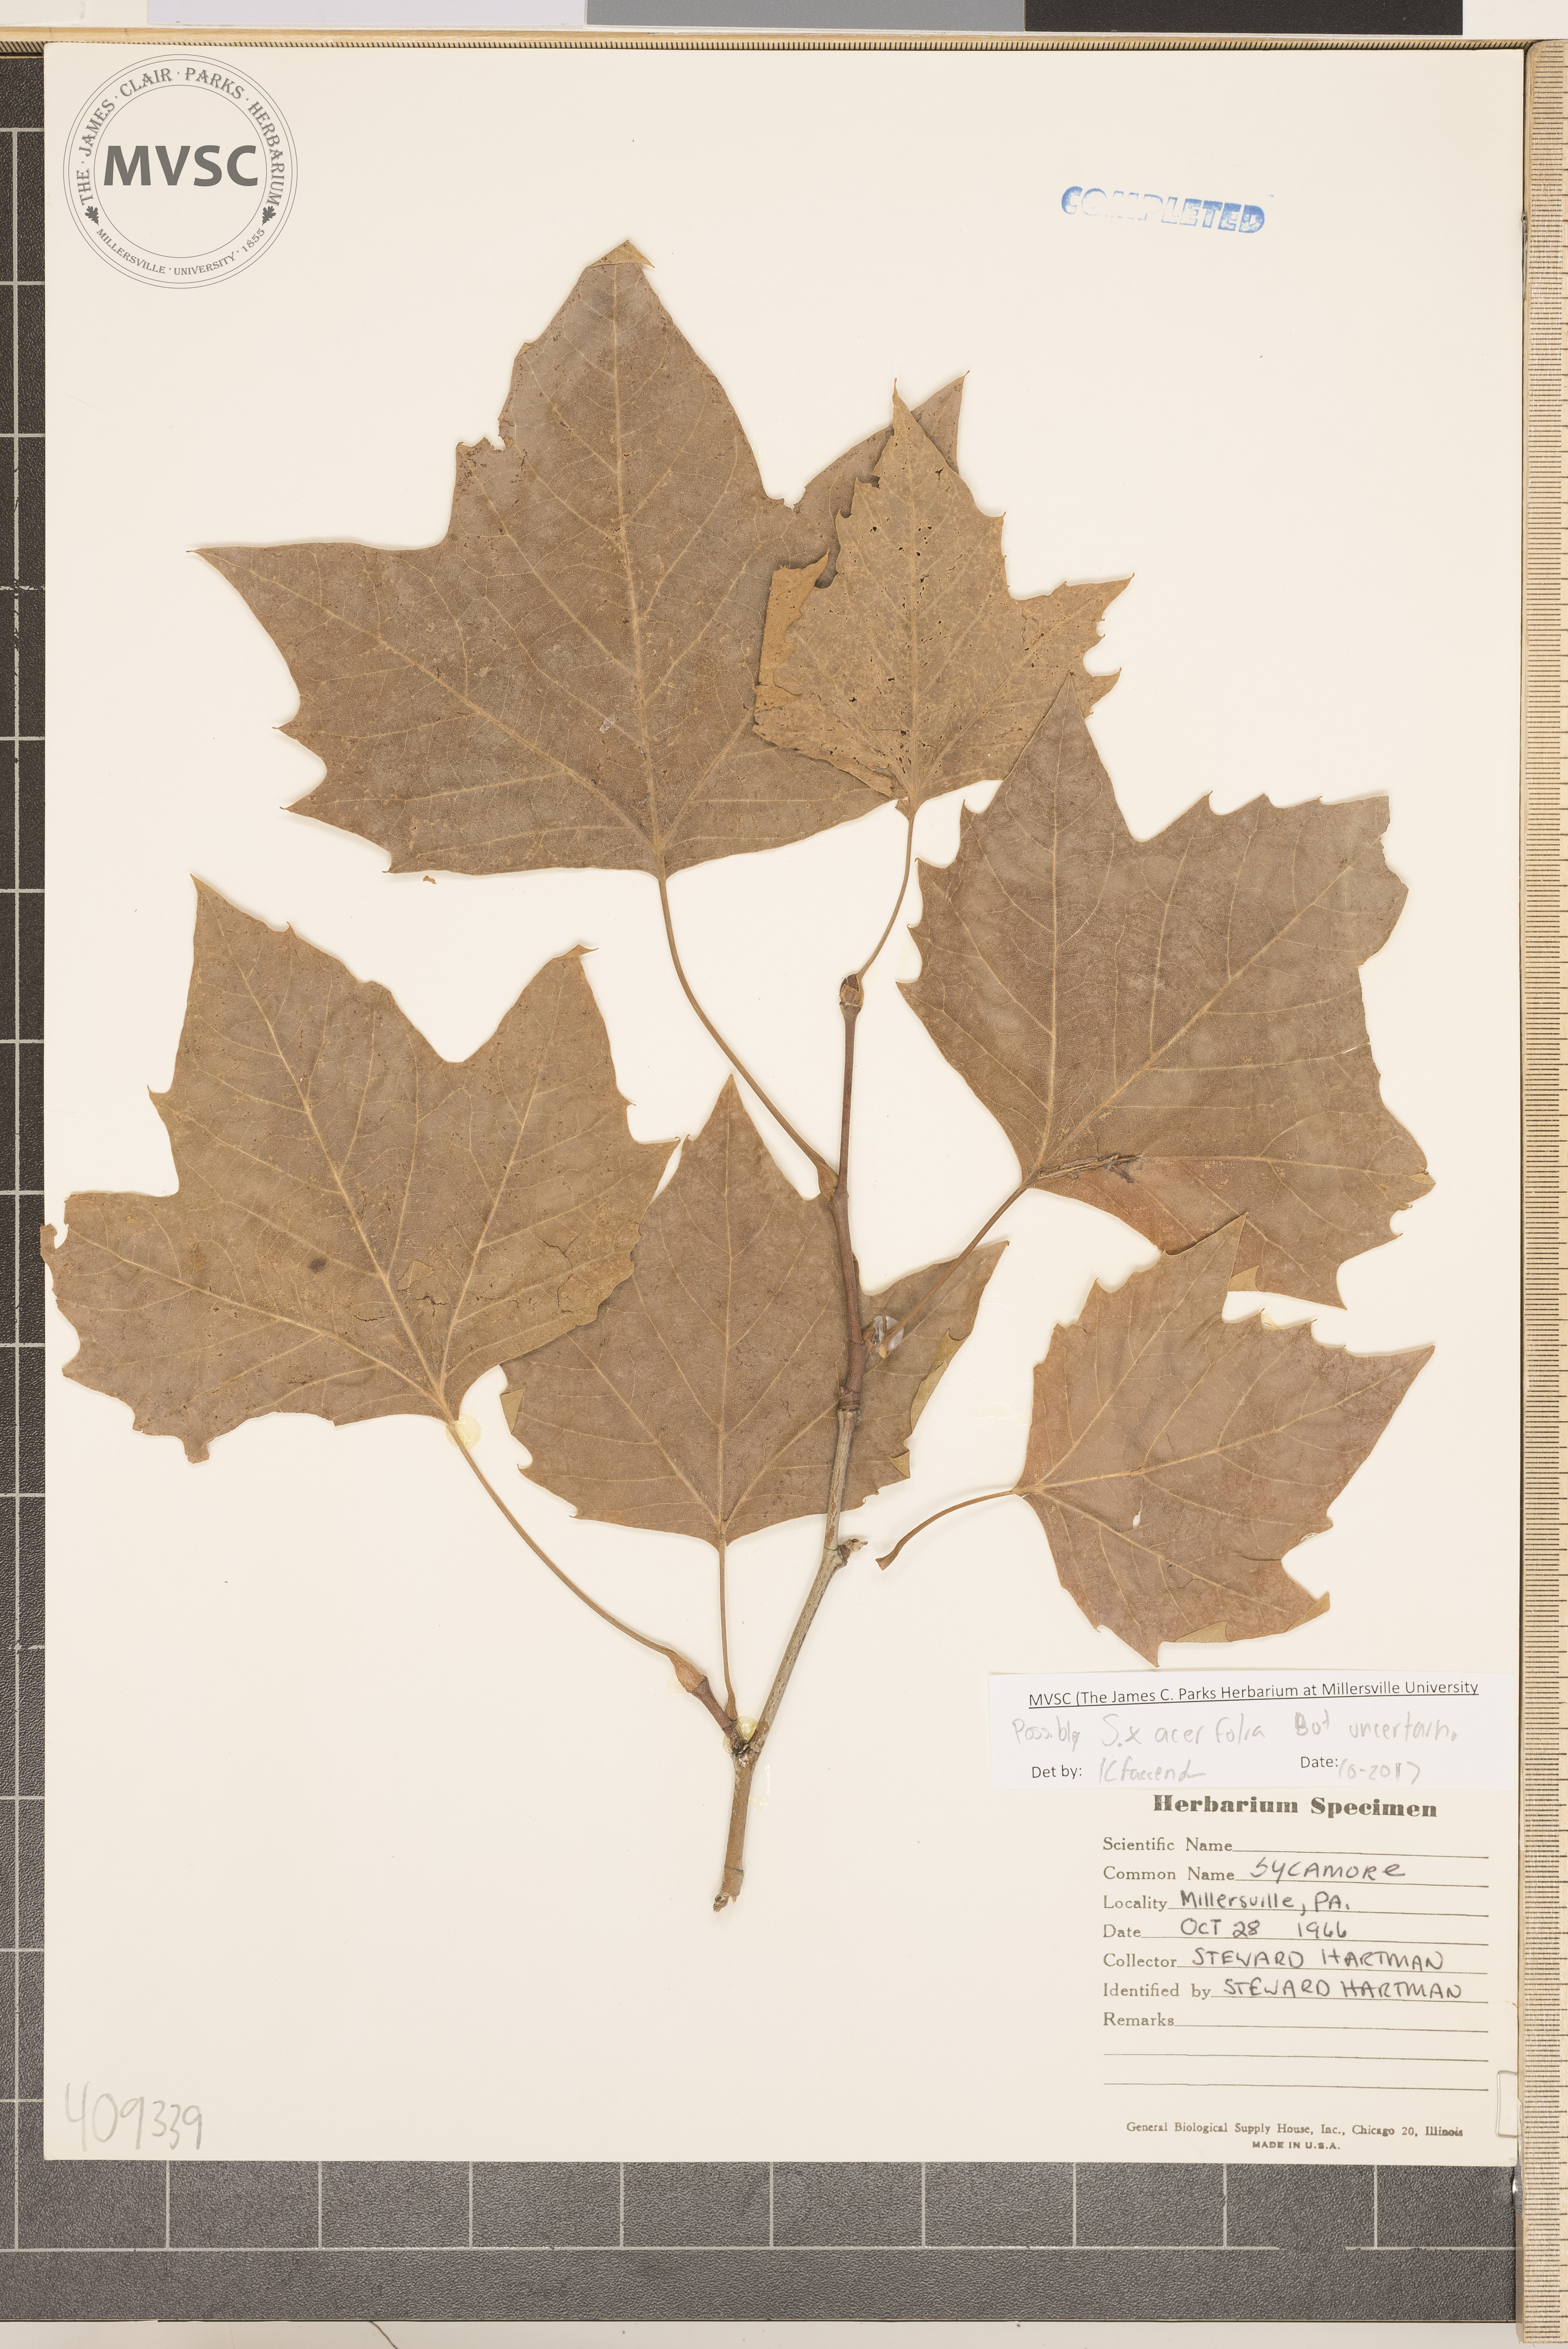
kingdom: Plantae
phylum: Tracheophyta
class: Magnoliopsida
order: Proteales
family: Platanaceae
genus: Platanus
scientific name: Platanus
